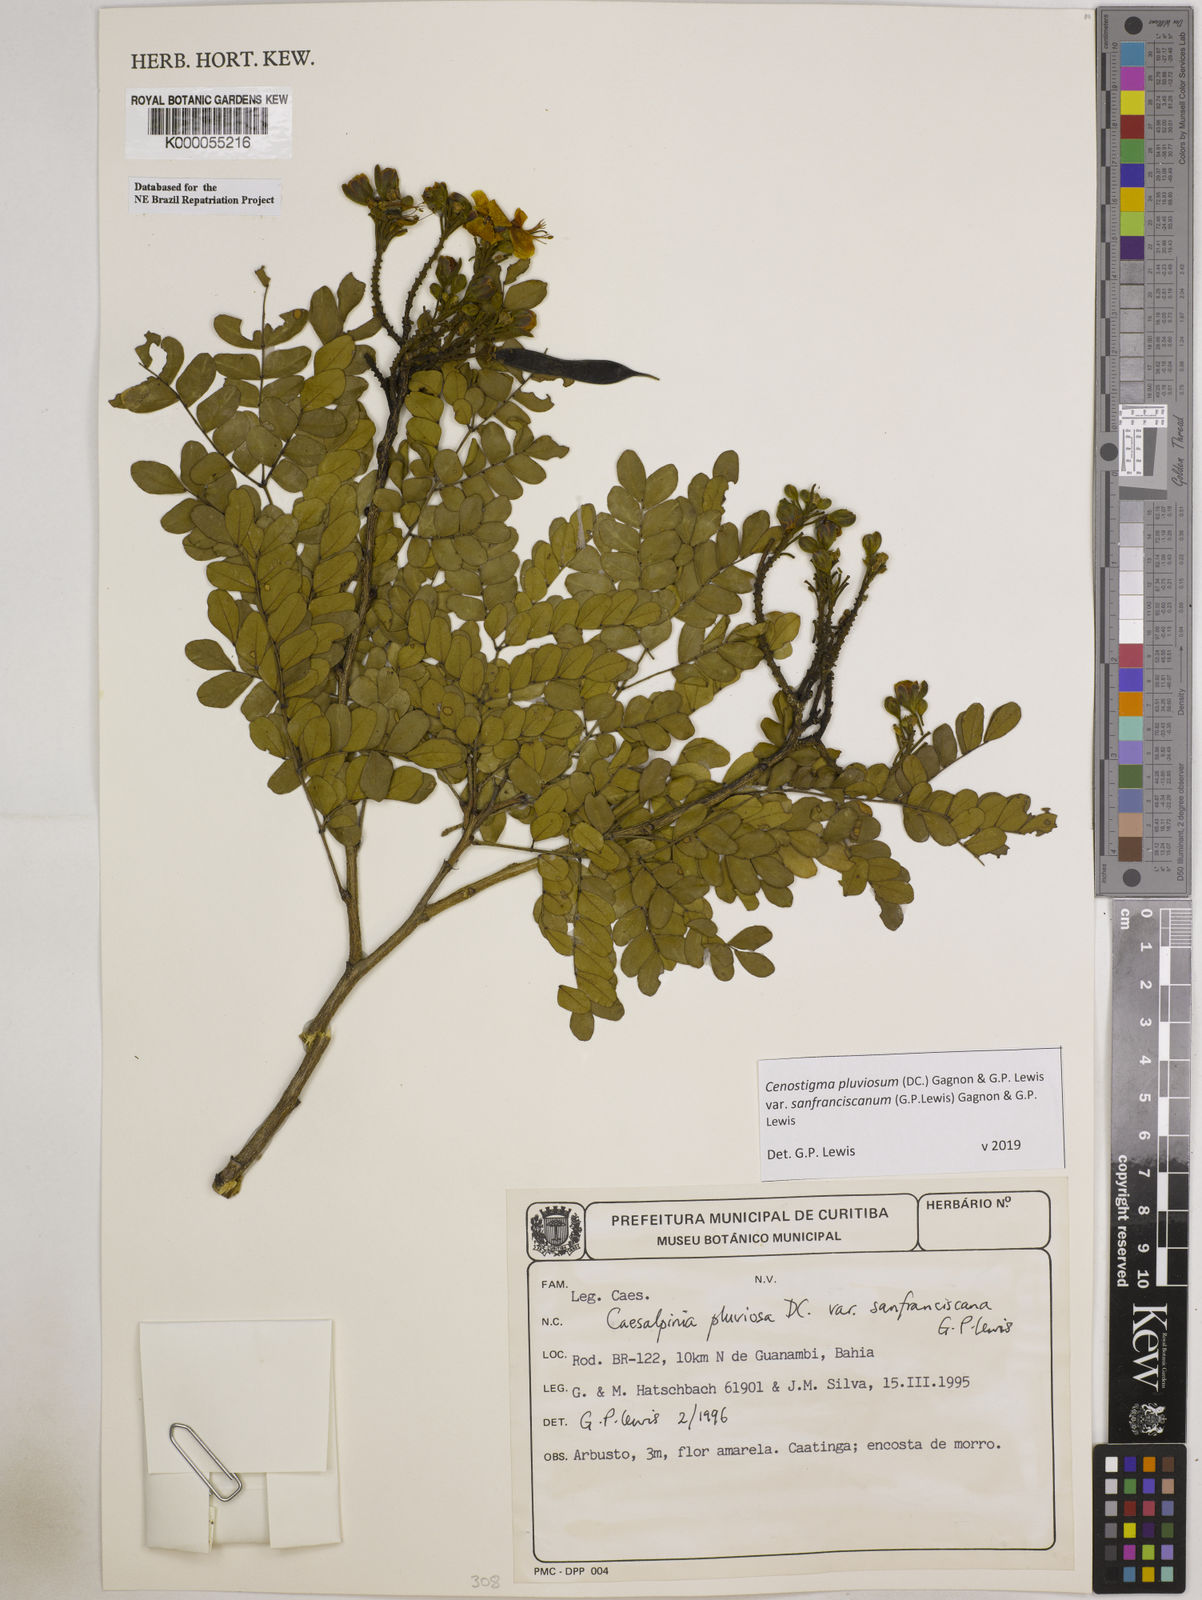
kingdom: Plantae
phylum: Tracheophyta
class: Magnoliopsida
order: Fabales
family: Fabaceae
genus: Cenostigma
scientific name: Cenostigma pluviosum
